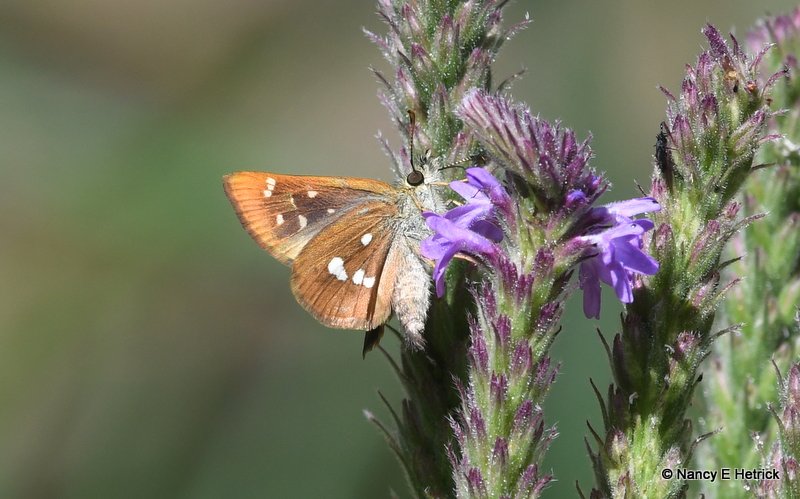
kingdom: Animalia
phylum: Arthropoda
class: Insecta
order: Lepidoptera
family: Hesperiidae
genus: Piruna
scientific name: Piruna polingii
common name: Four-spotted Skipperling
